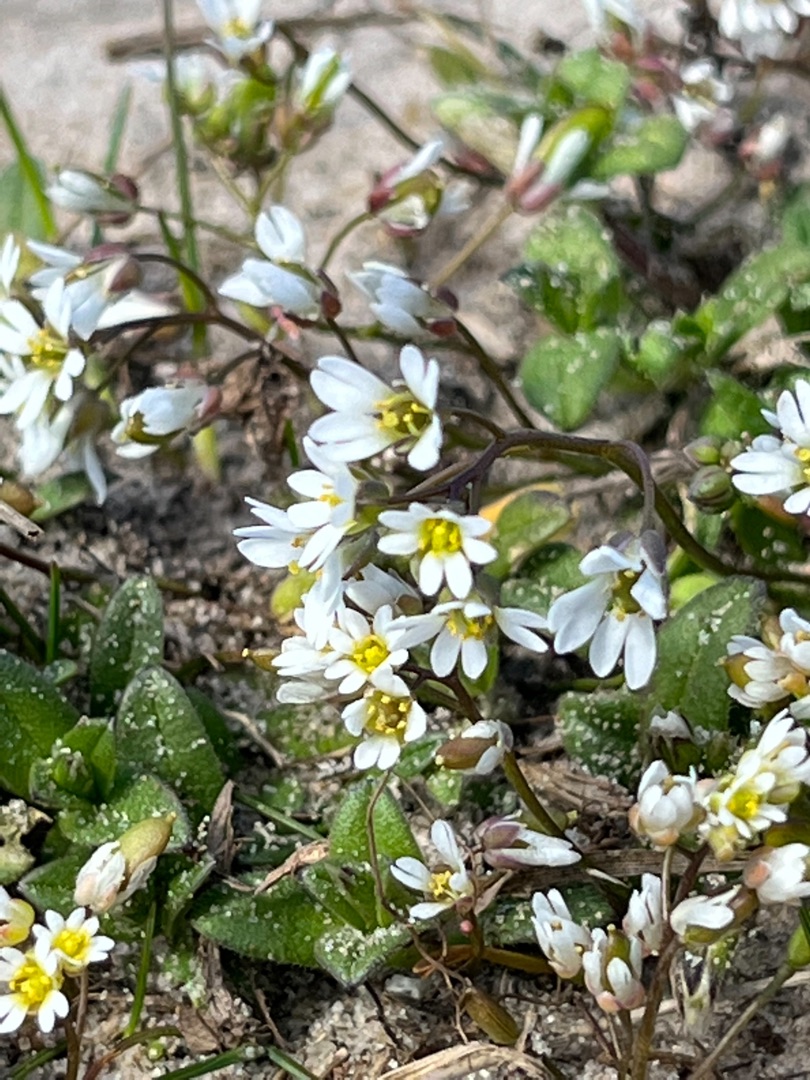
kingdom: Plantae
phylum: Tracheophyta
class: Magnoliopsida
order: Brassicales
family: Brassicaceae
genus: Draba
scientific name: Draba verna
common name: Vår-gæslingeblomst
